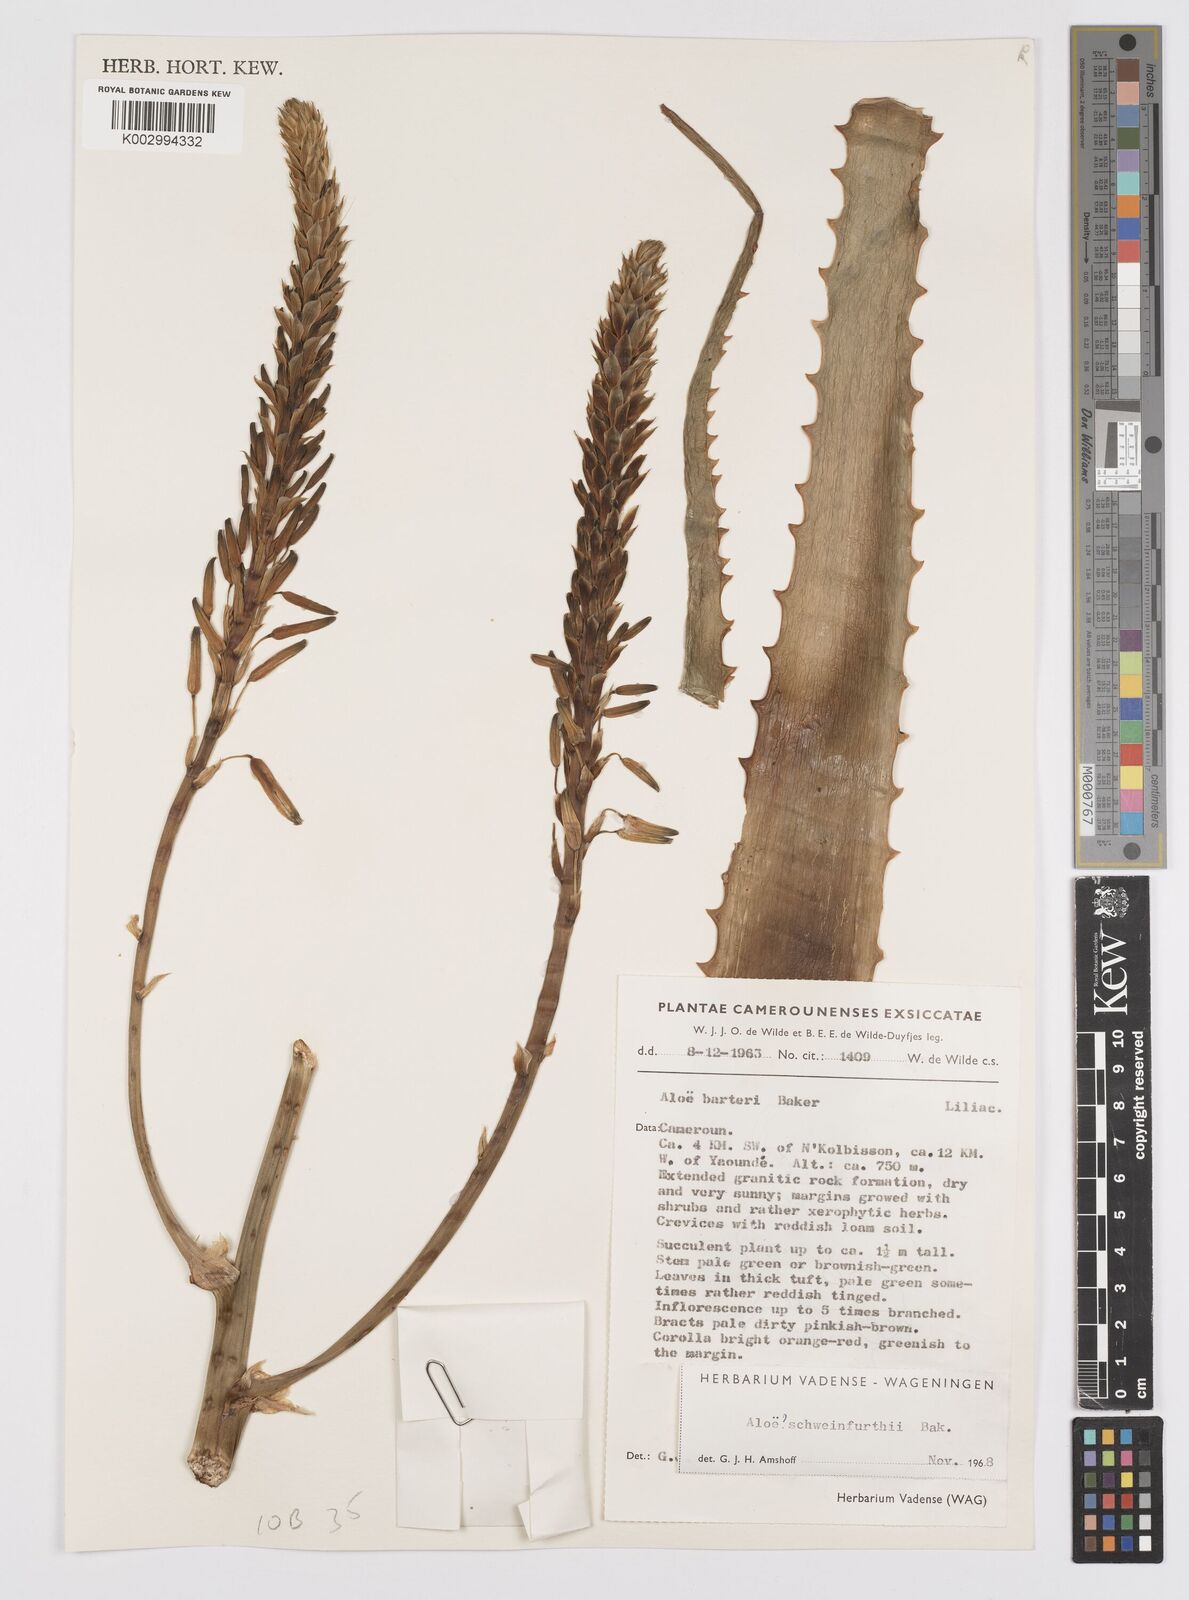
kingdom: Plantae
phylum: Tracheophyta
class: Liliopsida
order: Asparagales
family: Asphodelaceae
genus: Aloe
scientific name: Aloe seretii
